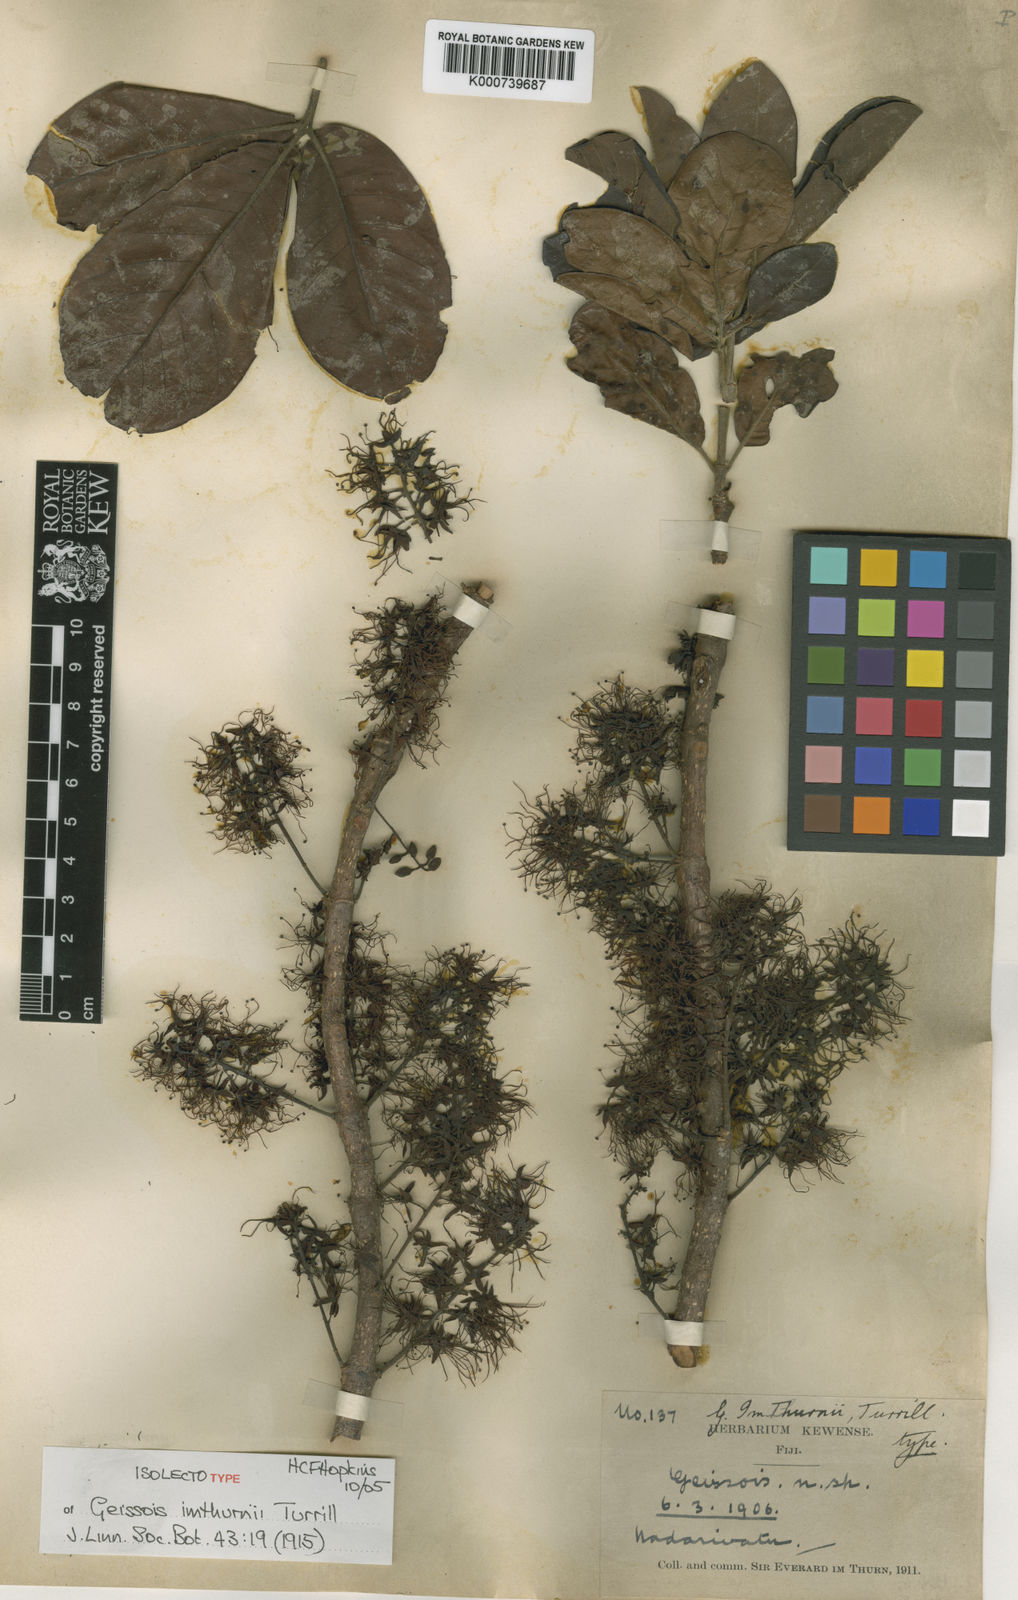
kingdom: Plantae
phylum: Tracheophyta
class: Magnoliopsida
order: Oxalidales
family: Cunoniaceae
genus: Geissois
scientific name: Geissois imthurnii
